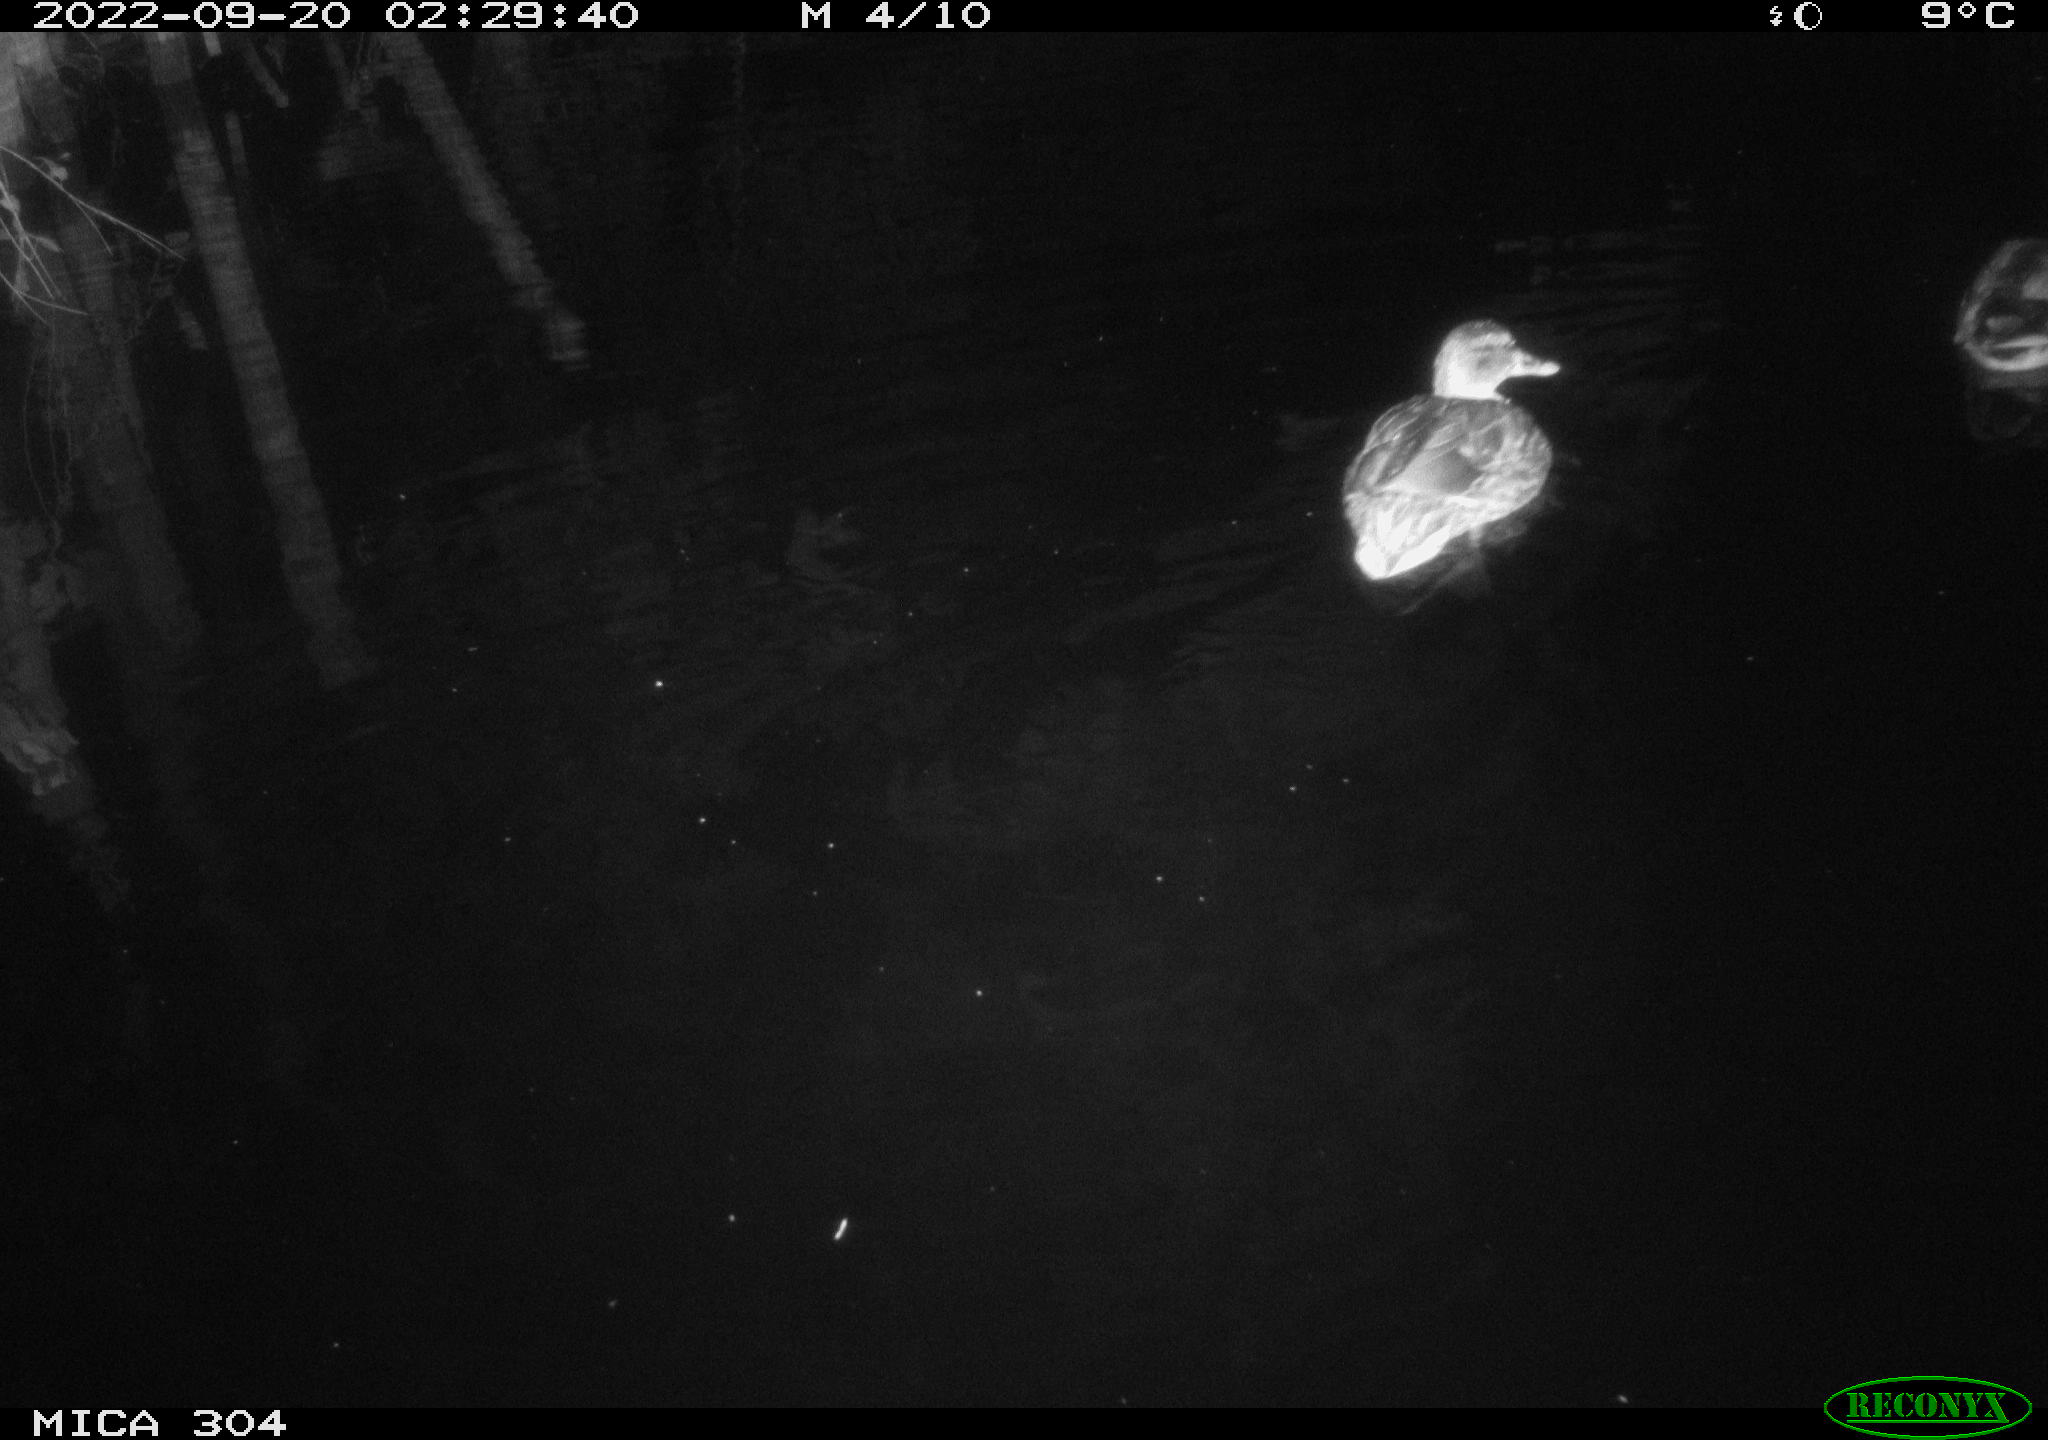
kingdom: Animalia
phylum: Chordata
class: Aves
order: Anseriformes
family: Anatidae
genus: Anas
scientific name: Anas
